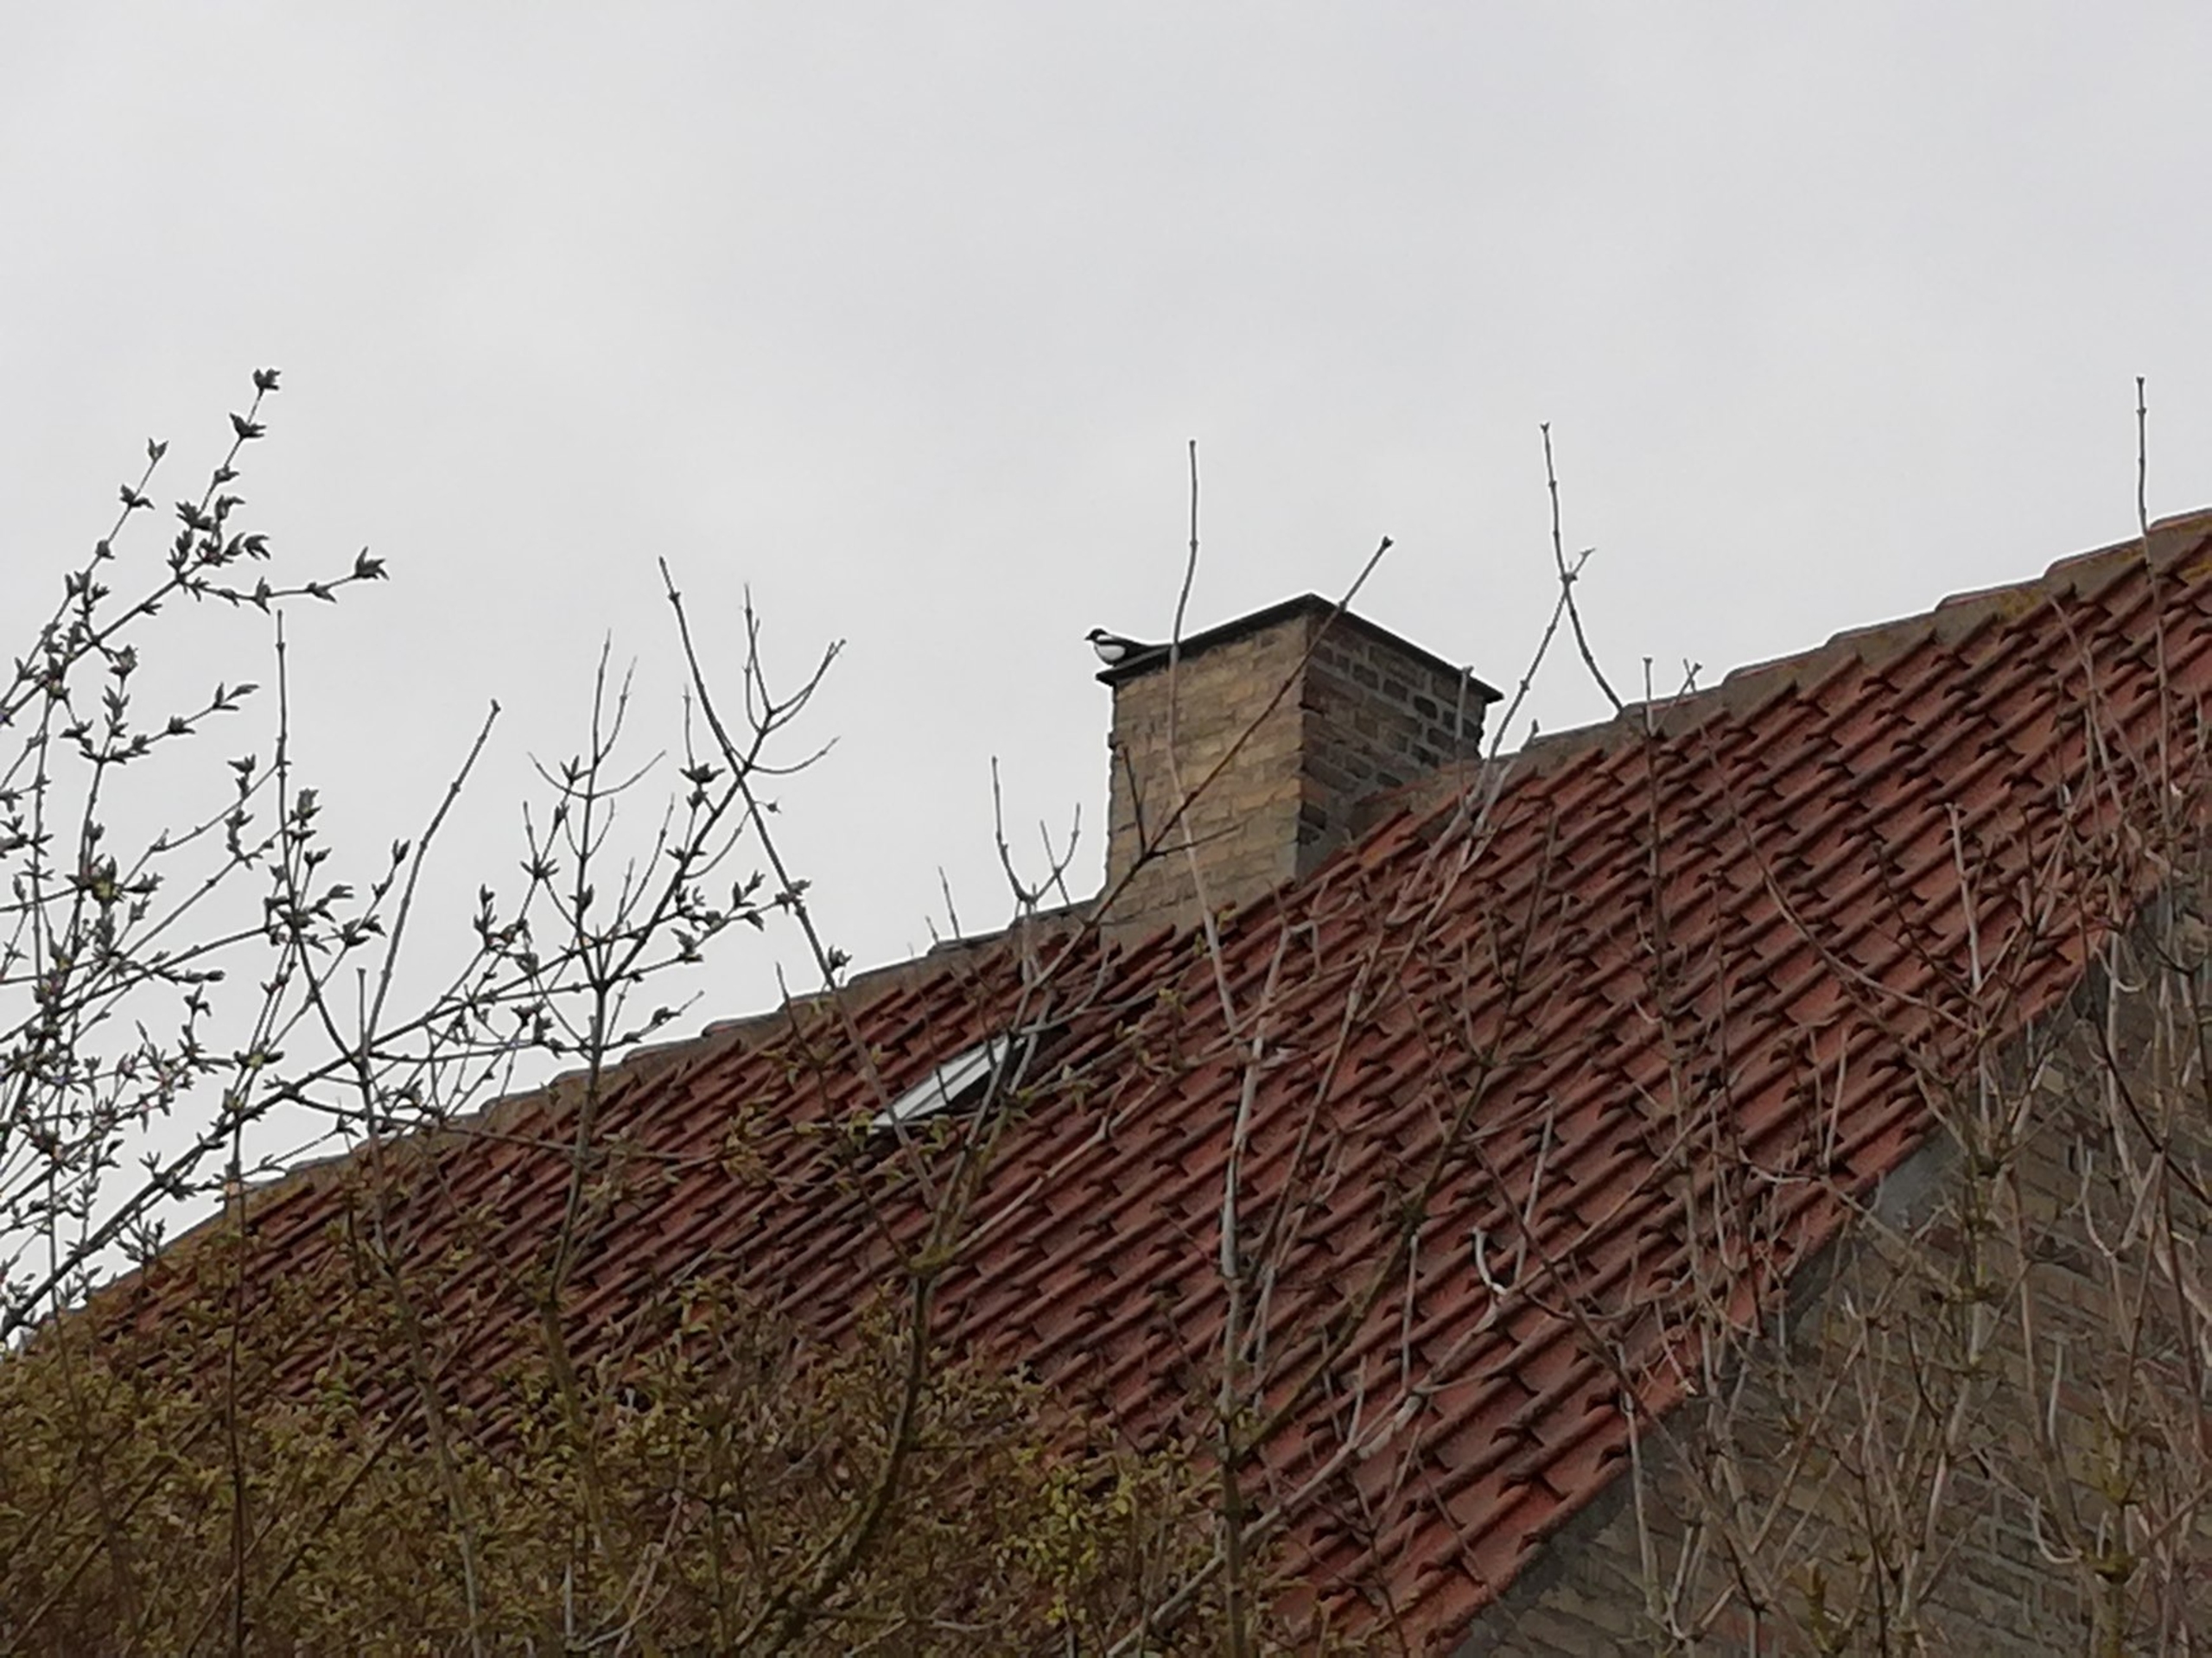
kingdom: Animalia
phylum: Chordata
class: Aves
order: Passeriformes
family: Corvidae
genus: Pica
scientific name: Pica pica
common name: Husskade
